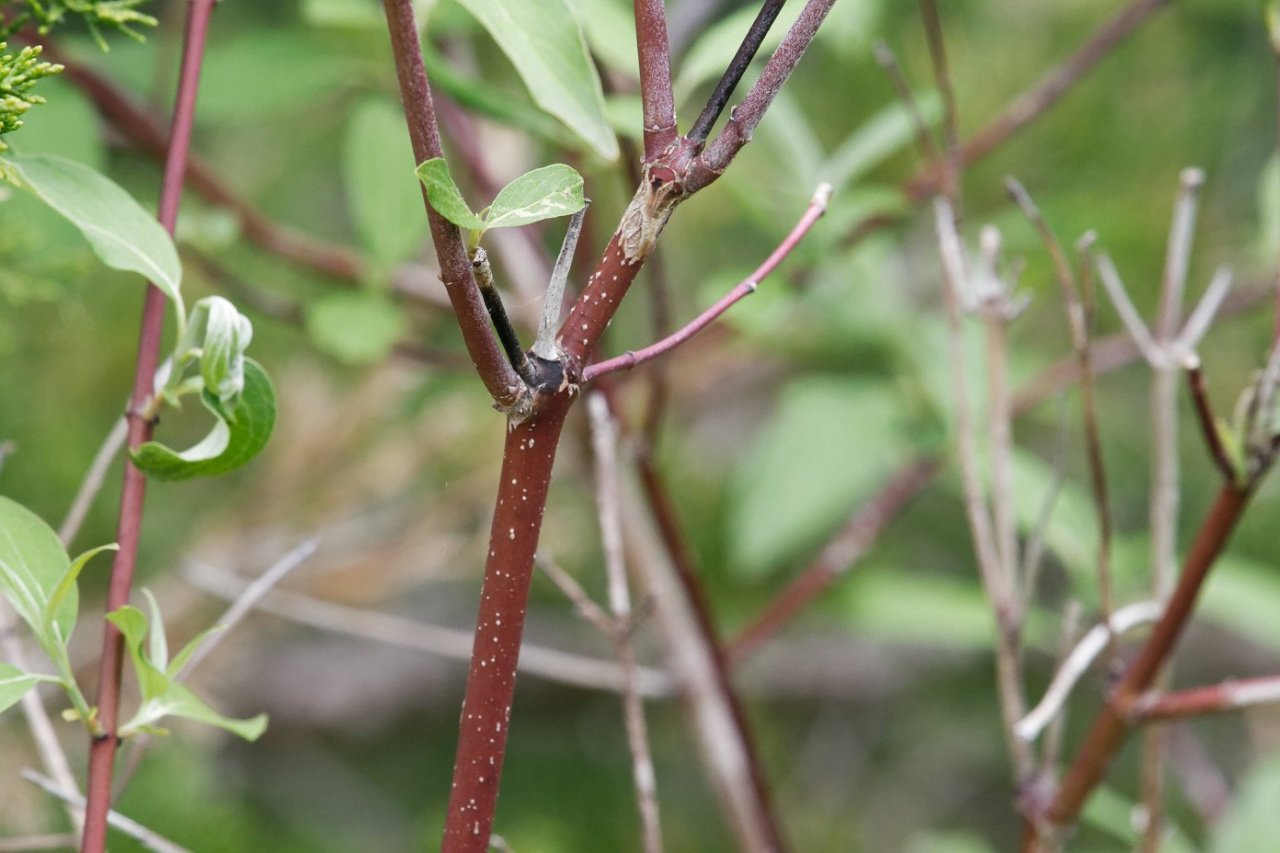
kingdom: Animalia
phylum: Arthropoda
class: Insecta
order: Lepidoptera
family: Lycaenidae
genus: Celastrina
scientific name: Celastrina lucia
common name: Northern Spring Azure
